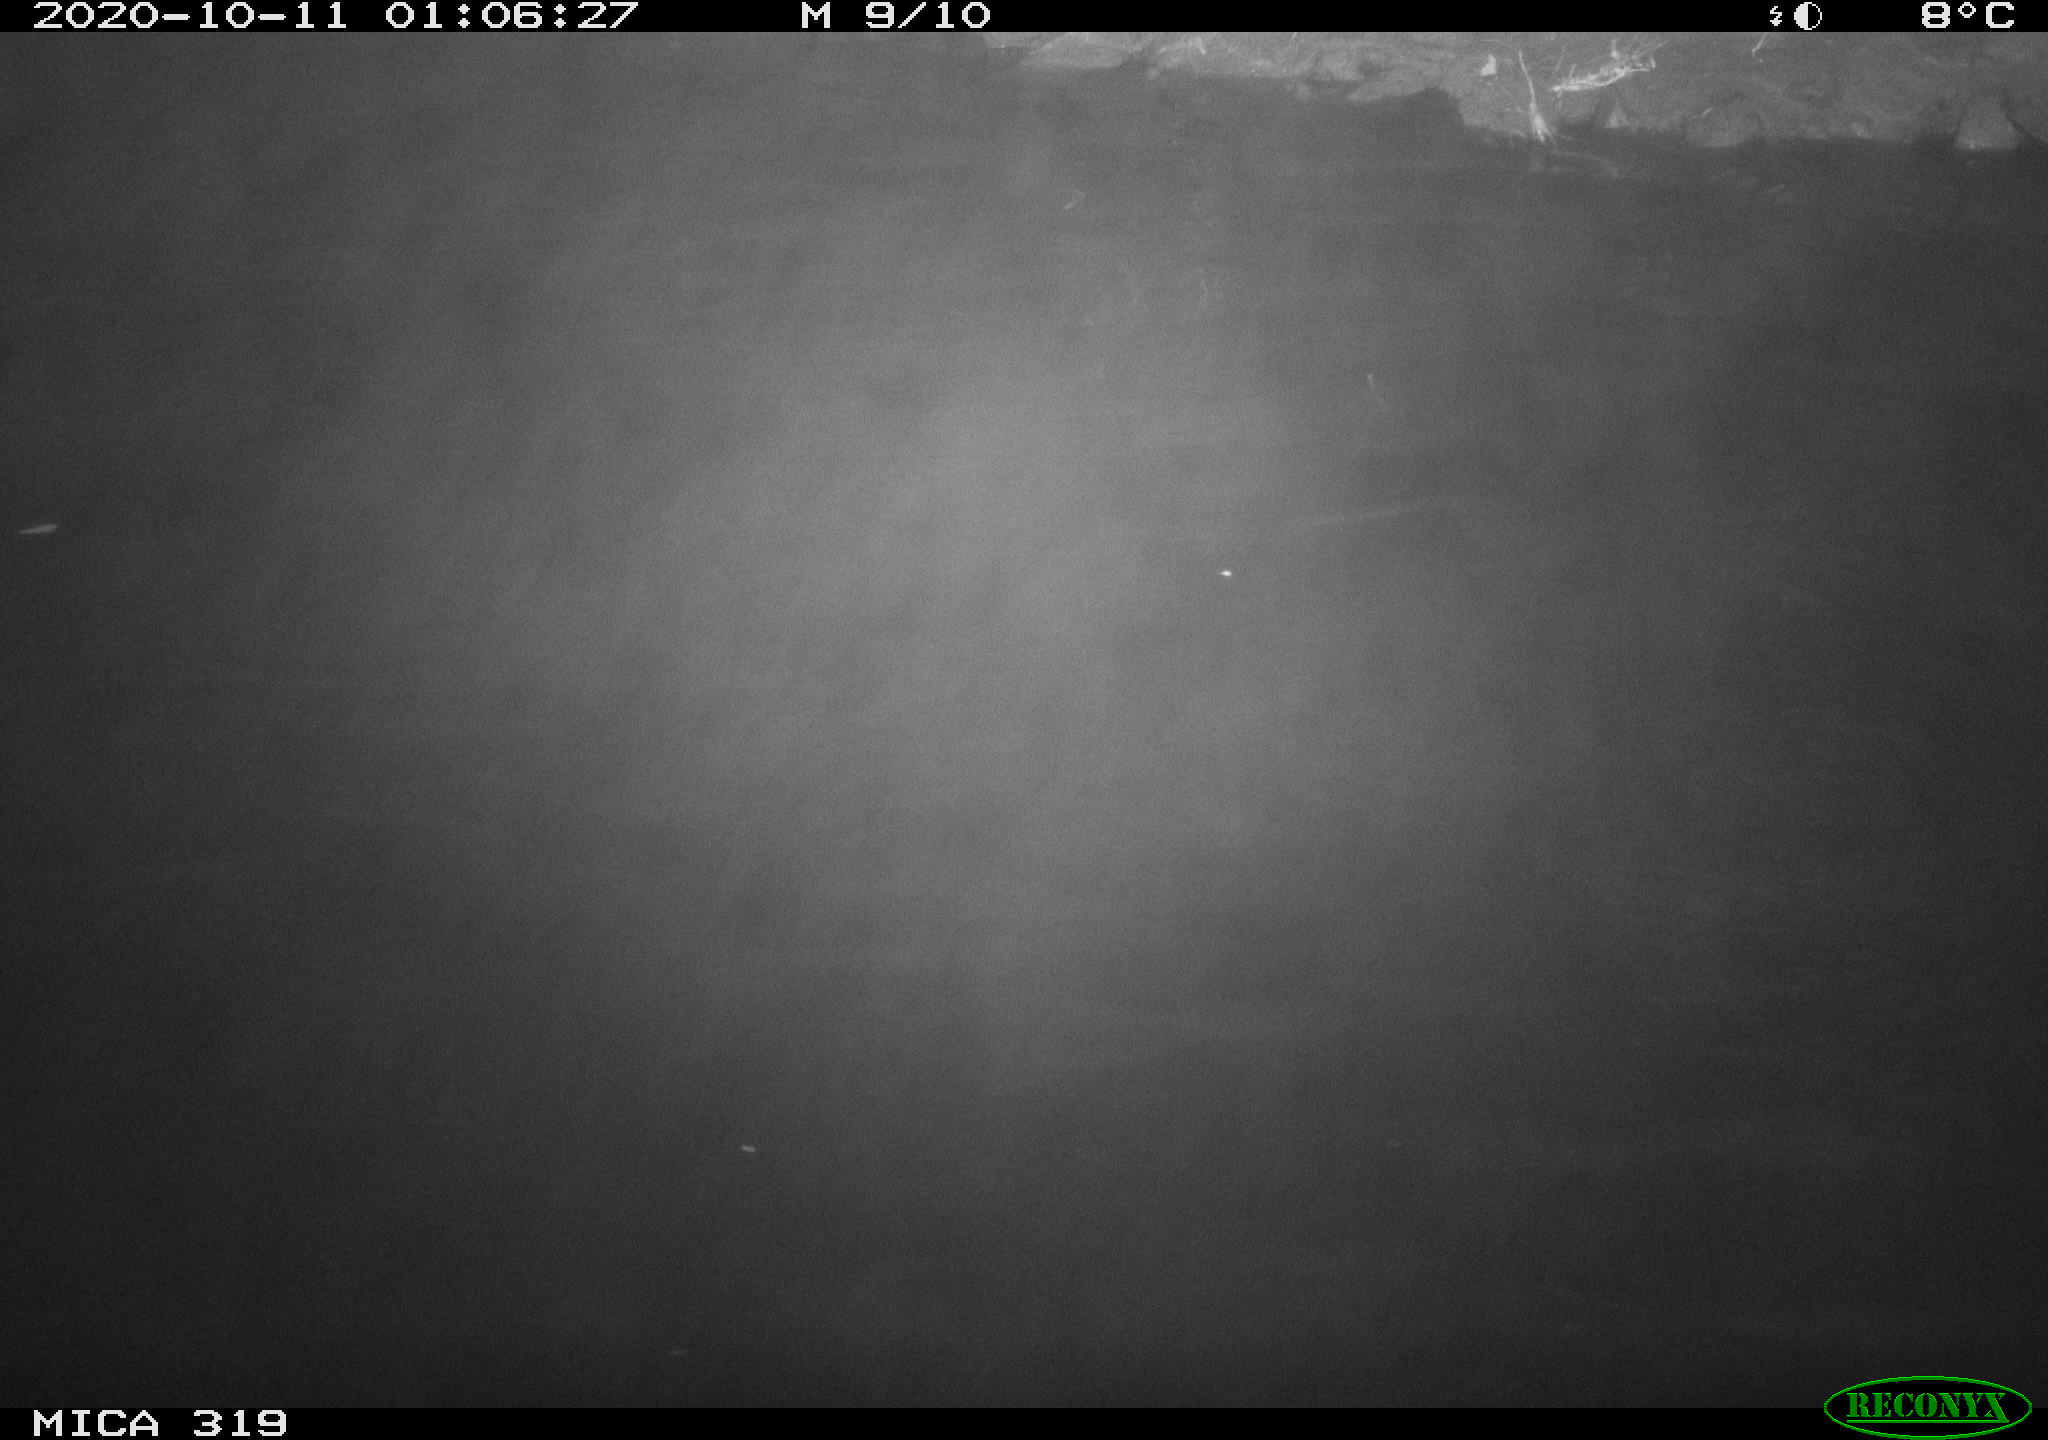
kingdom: Animalia
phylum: Chordata
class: Aves
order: Anseriformes
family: Anatidae
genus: Anas
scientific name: Anas platyrhynchos
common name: Mallard
